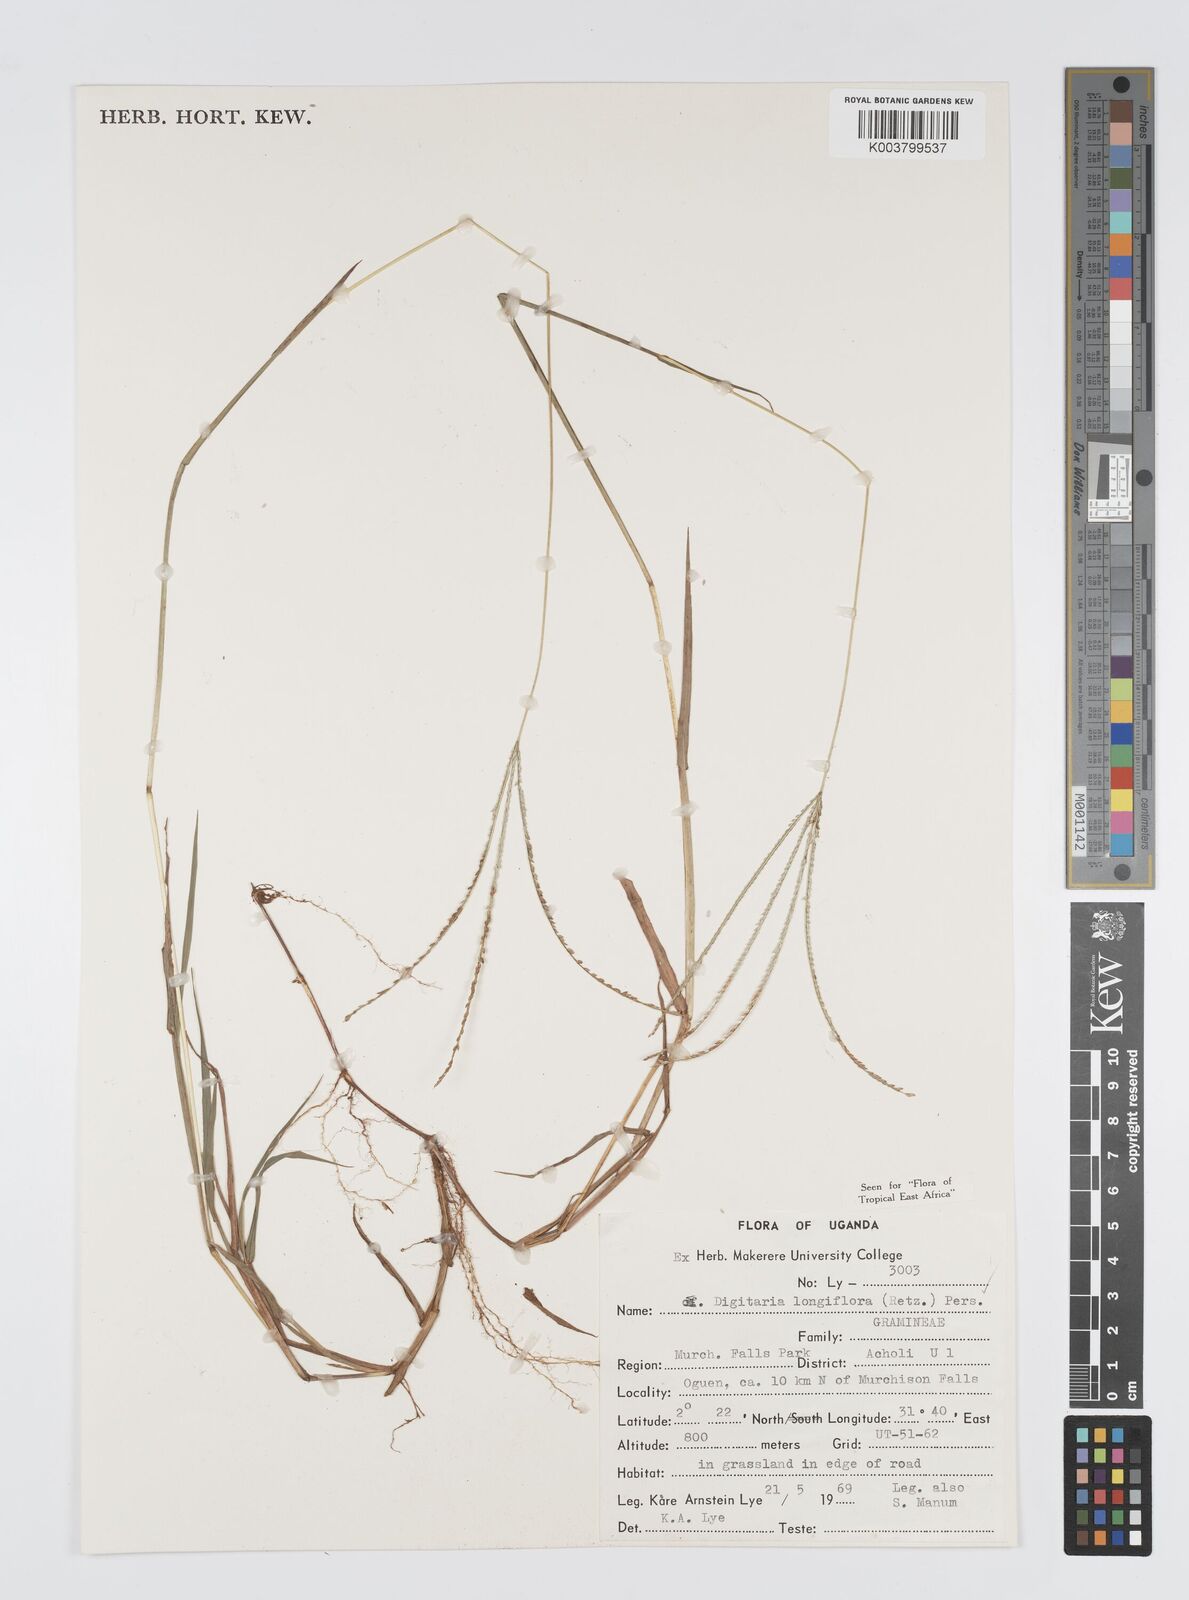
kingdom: Plantae
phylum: Tracheophyta
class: Liliopsida
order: Poales
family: Poaceae
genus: Digitaria
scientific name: Digitaria longiflora
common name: Wire crabgrass
